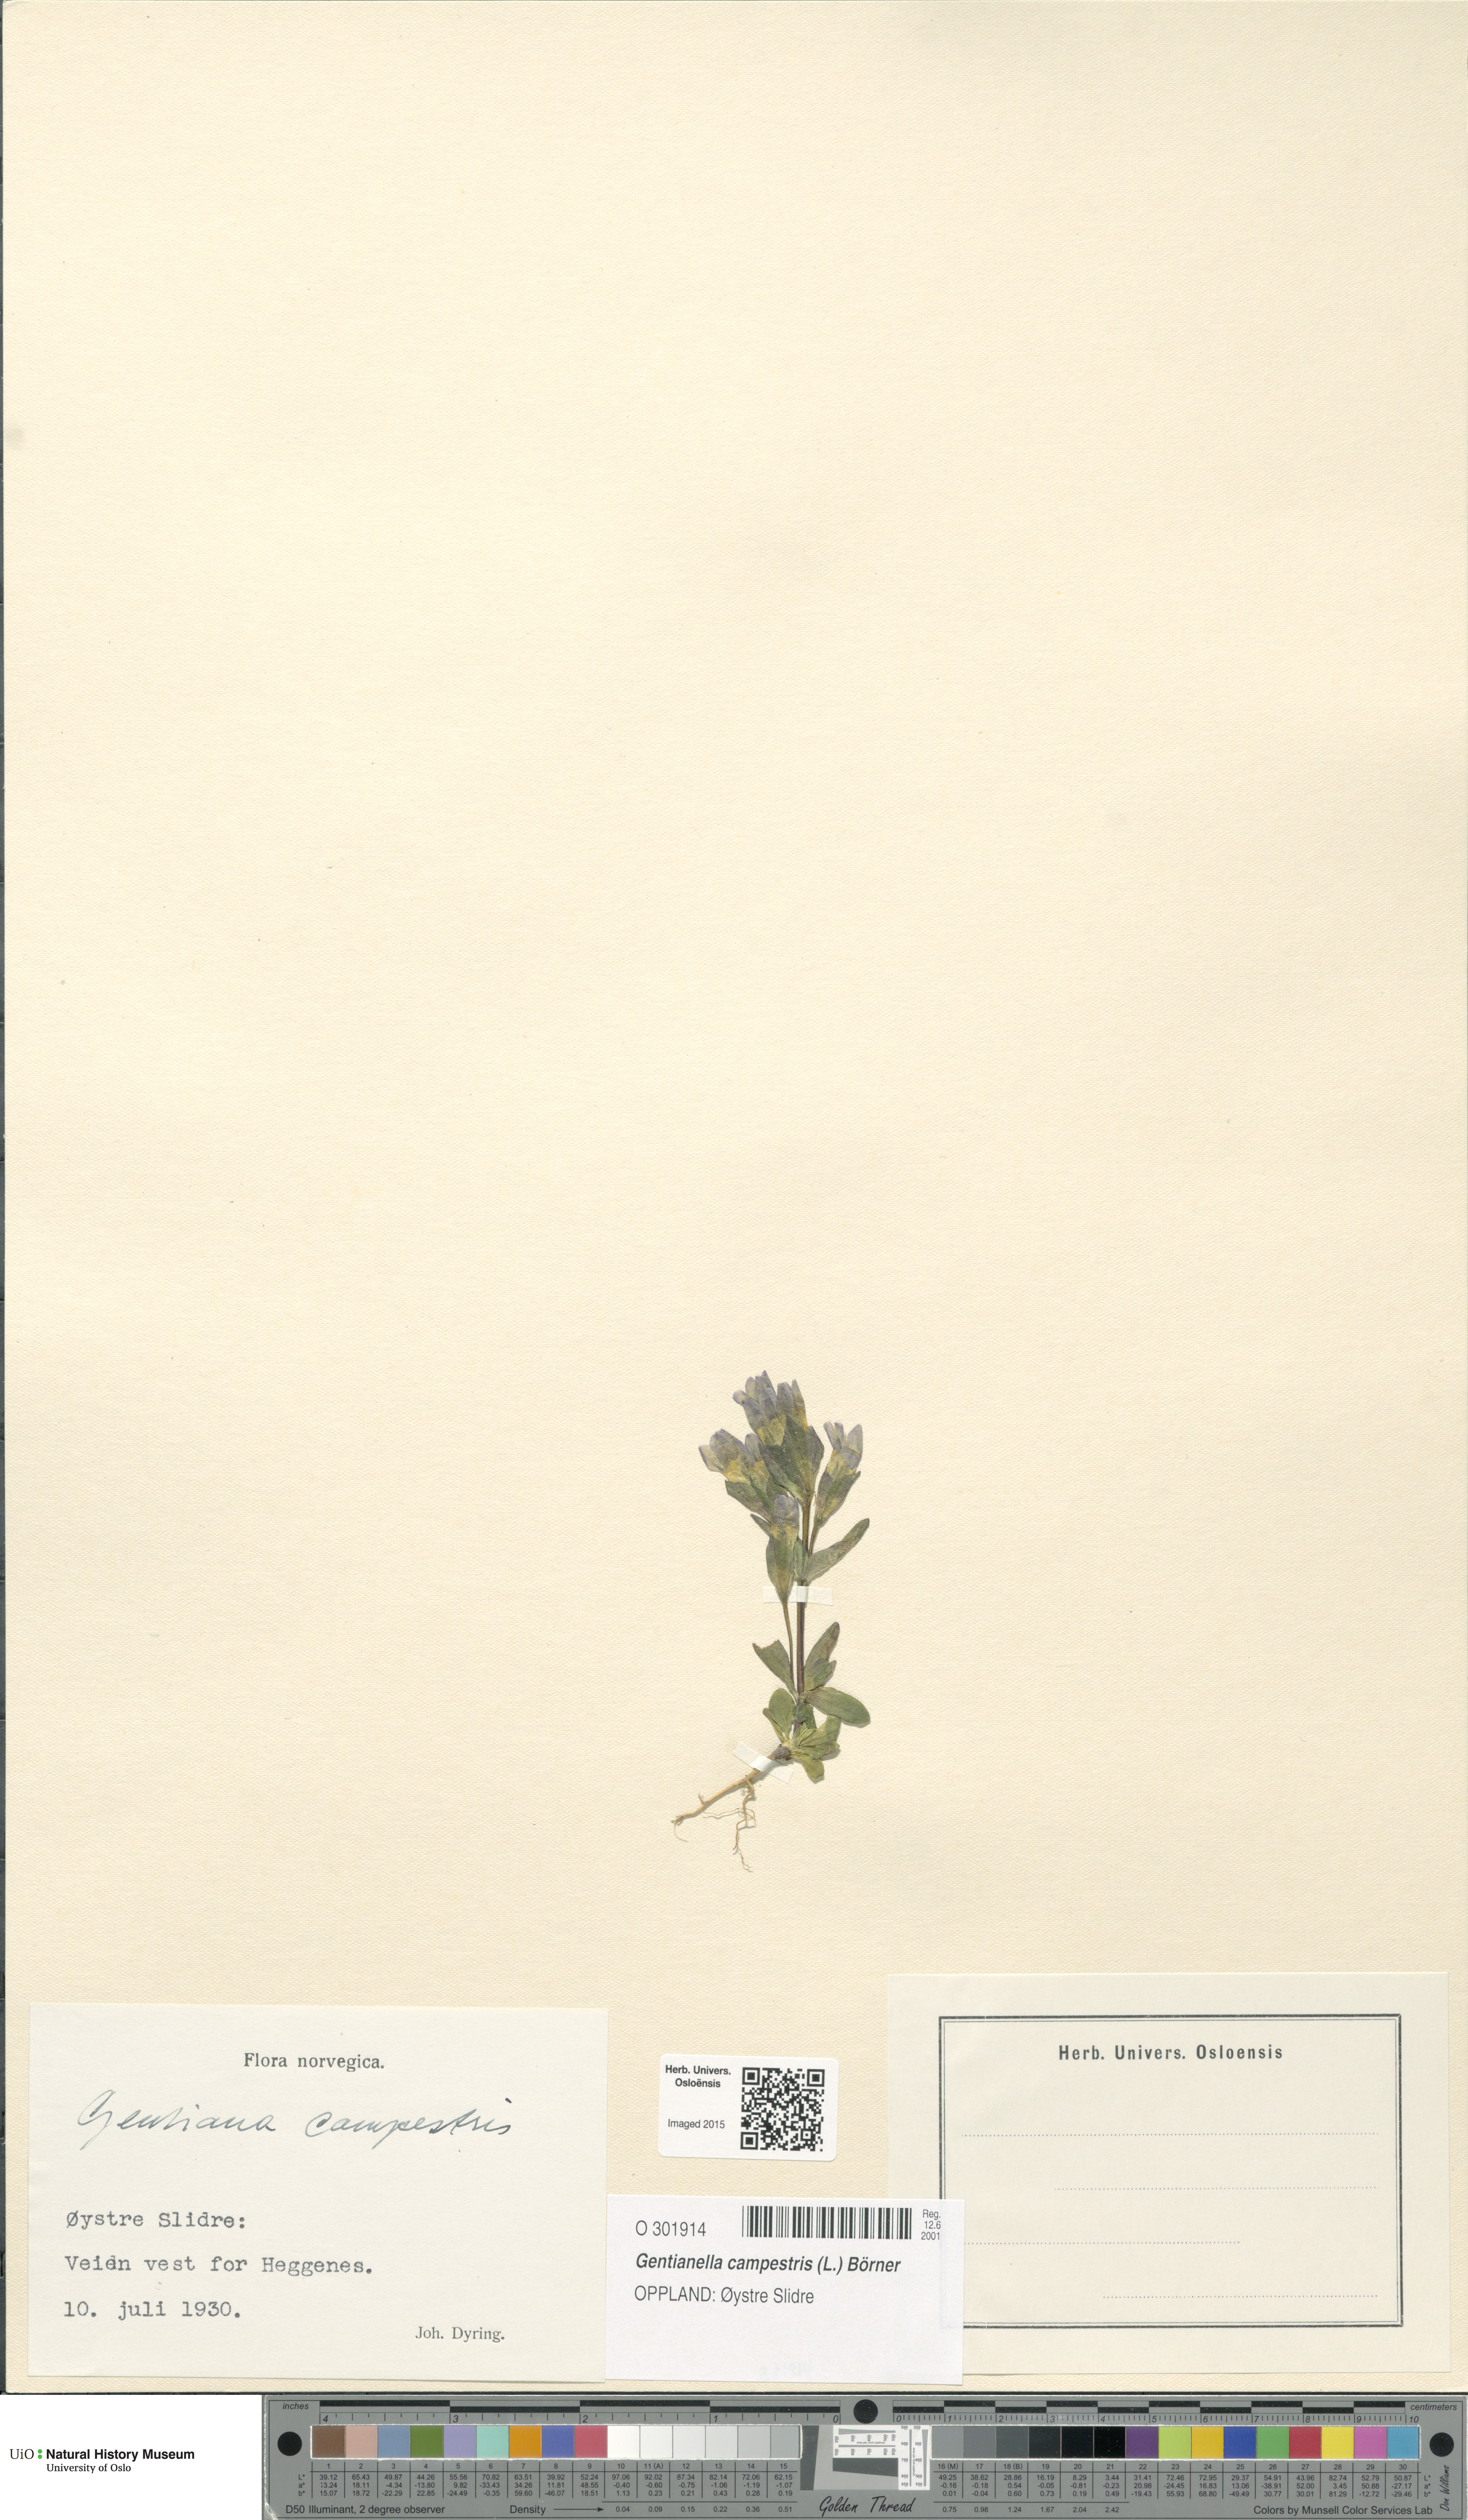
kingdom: Plantae
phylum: Tracheophyta
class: Magnoliopsida
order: Gentianales
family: Gentianaceae
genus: Gentianella
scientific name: Gentianella campestris
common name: Field gentian
